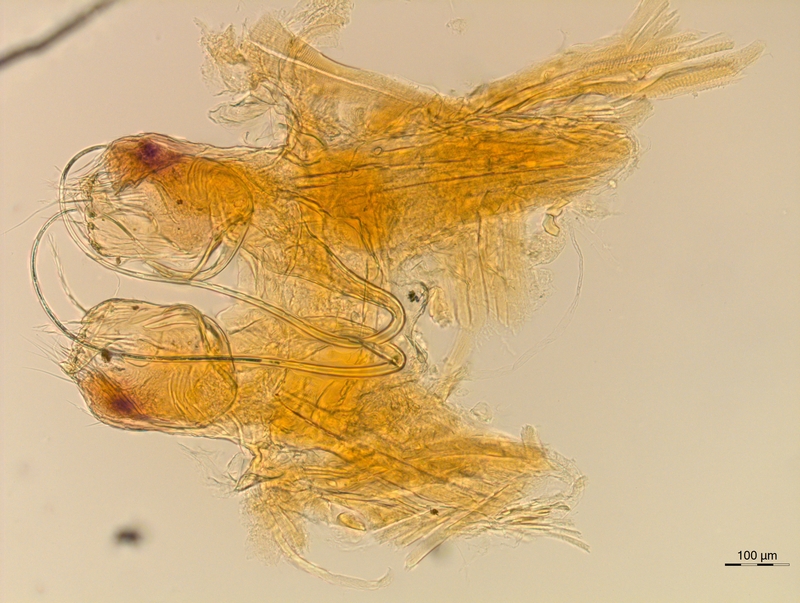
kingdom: Animalia
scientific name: Animalia
